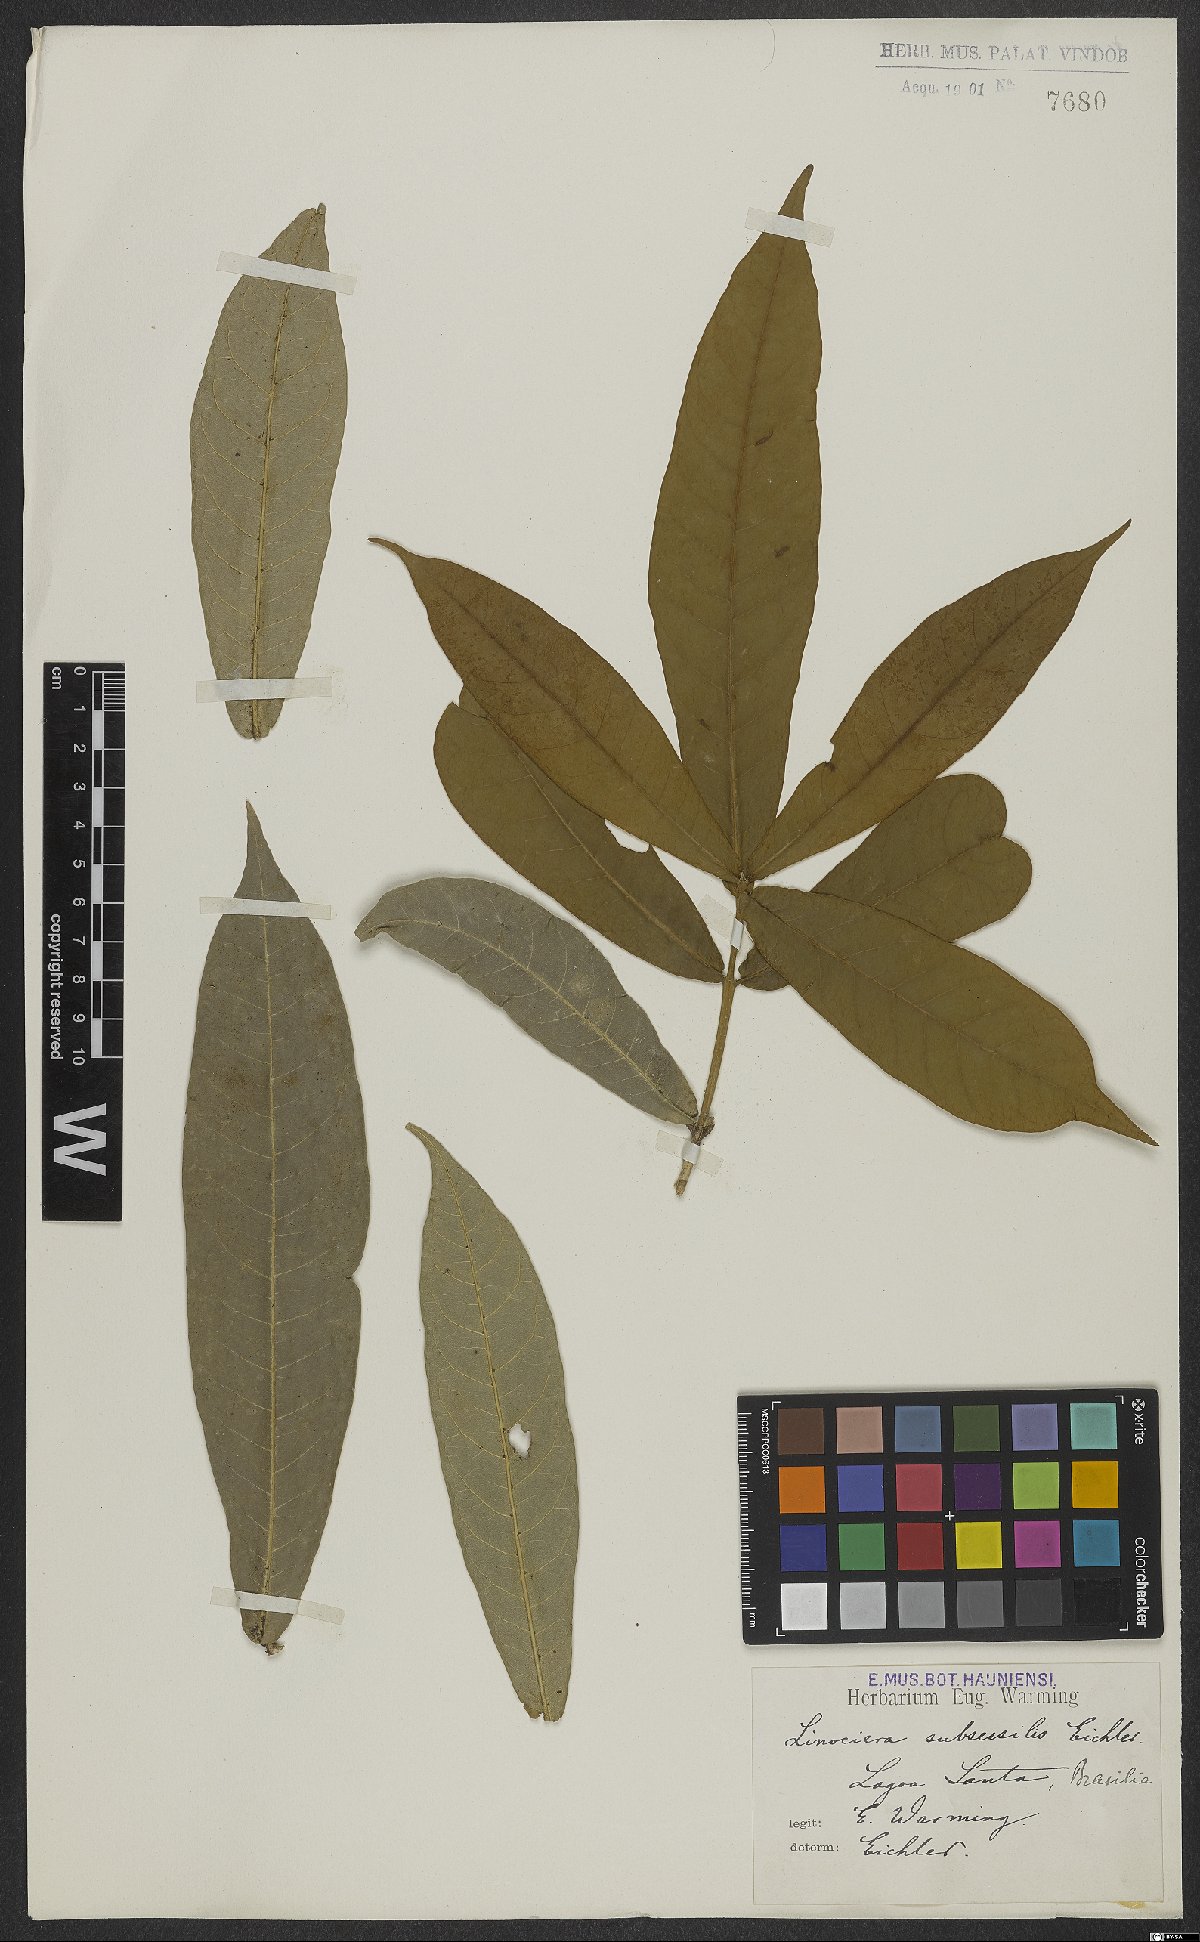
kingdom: Plantae
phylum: Tracheophyta
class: Magnoliopsida
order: Lamiales
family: Oleaceae
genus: Chionanthus
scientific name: Chionanthus subsessilis
